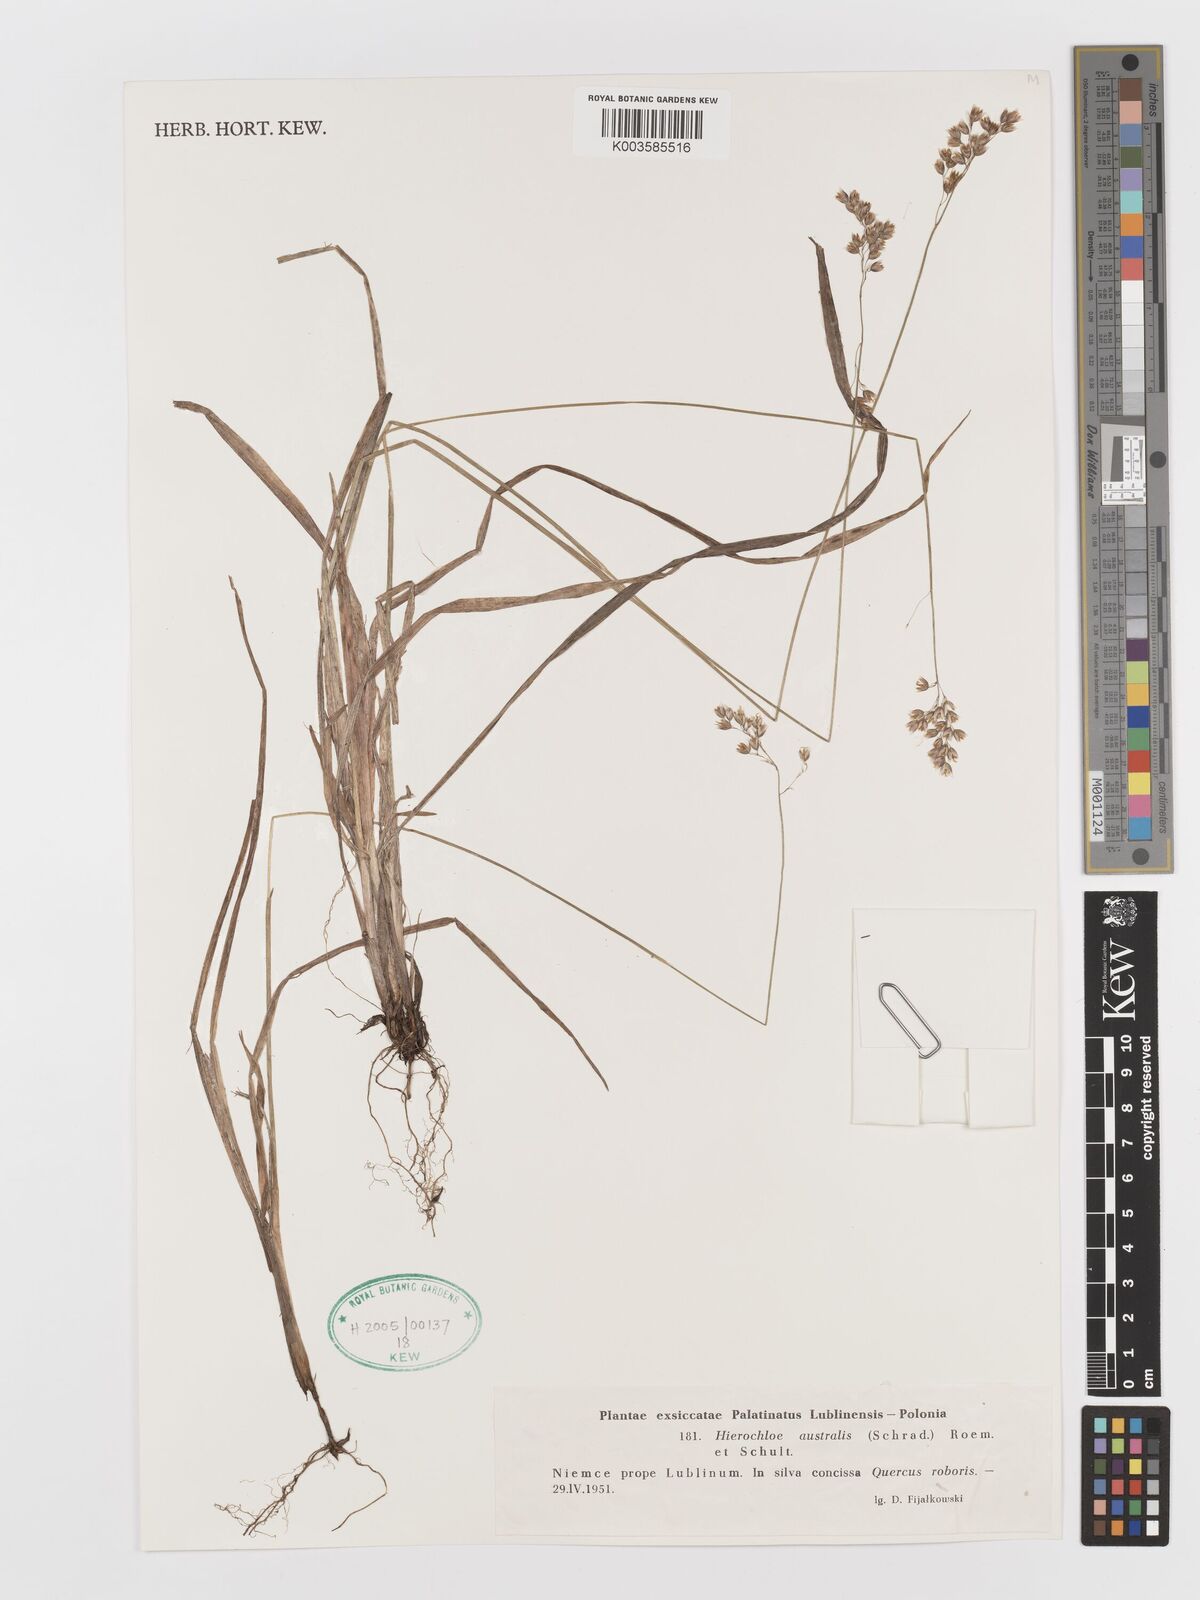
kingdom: Plantae
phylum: Tracheophyta
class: Liliopsida
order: Poales
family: Poaceae
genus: Anthoxanthum
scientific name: Anthoxanthum australe
